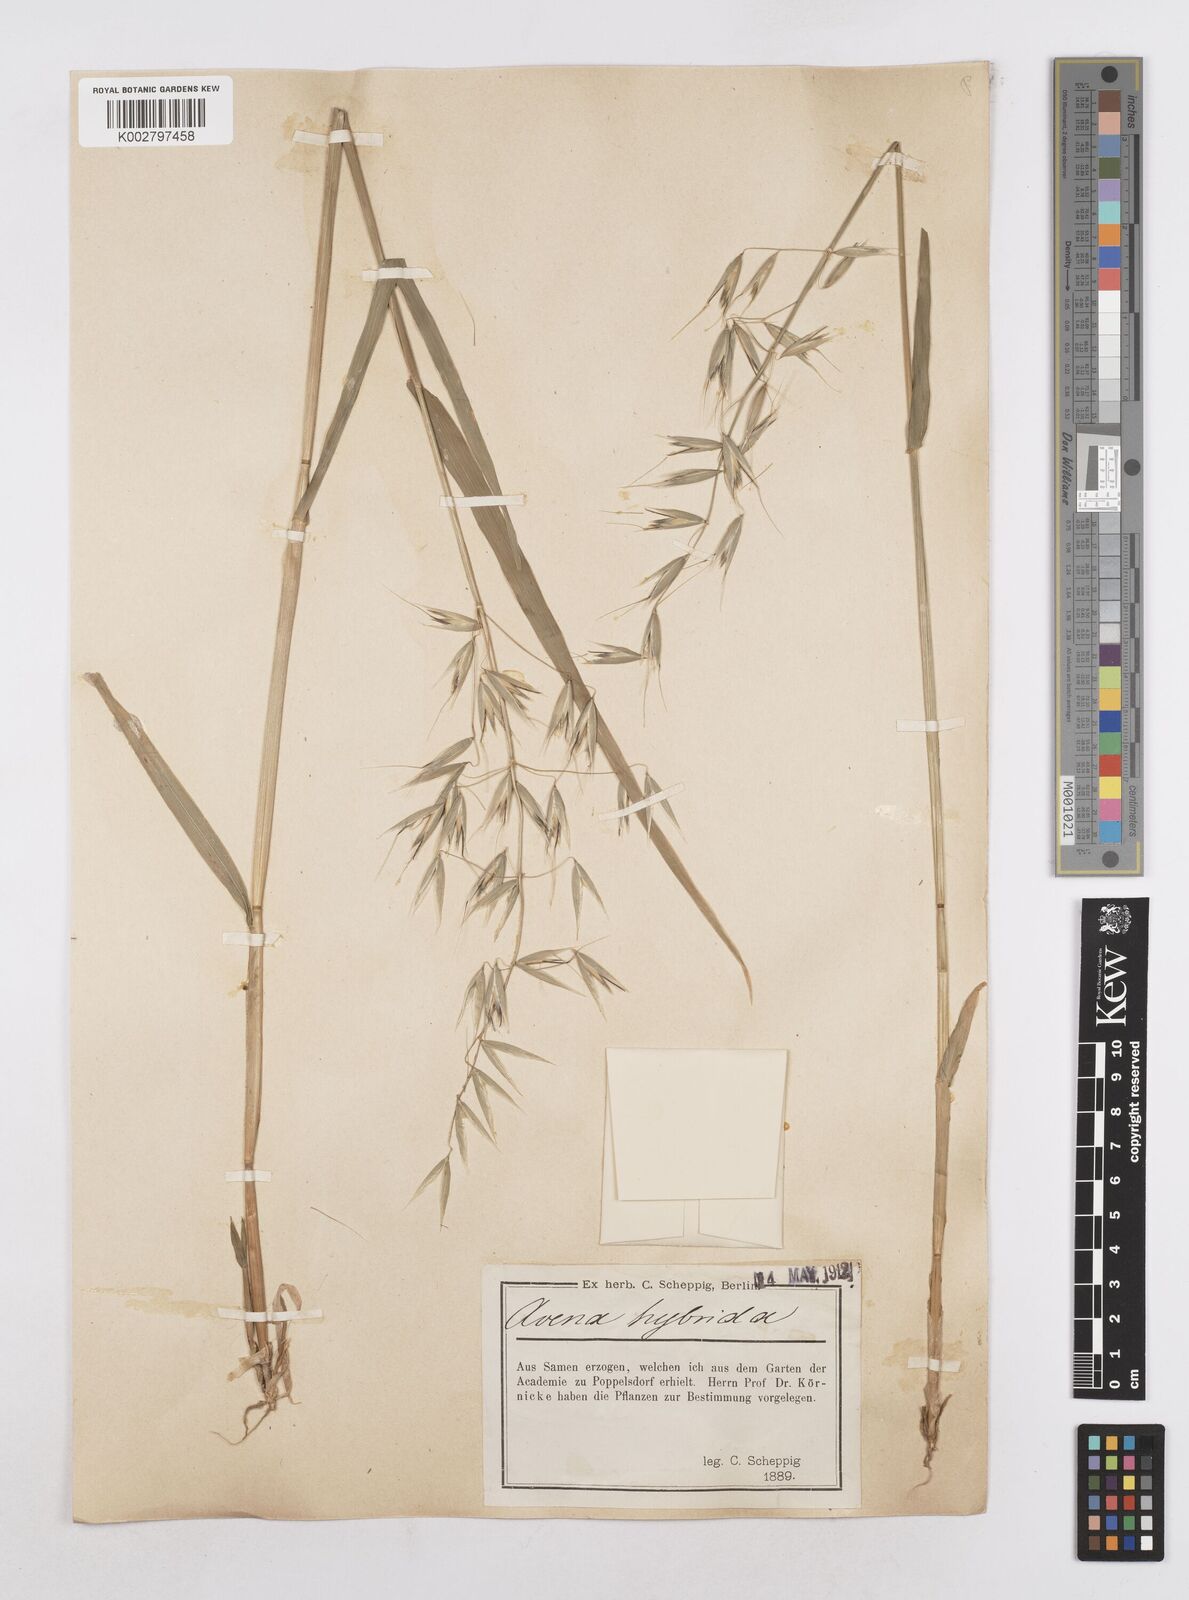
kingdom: Plantae
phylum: Tracheophyta
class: Liliopsida
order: Poales
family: Poaceae
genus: Avena
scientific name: Avena fatua
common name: Wild oat
